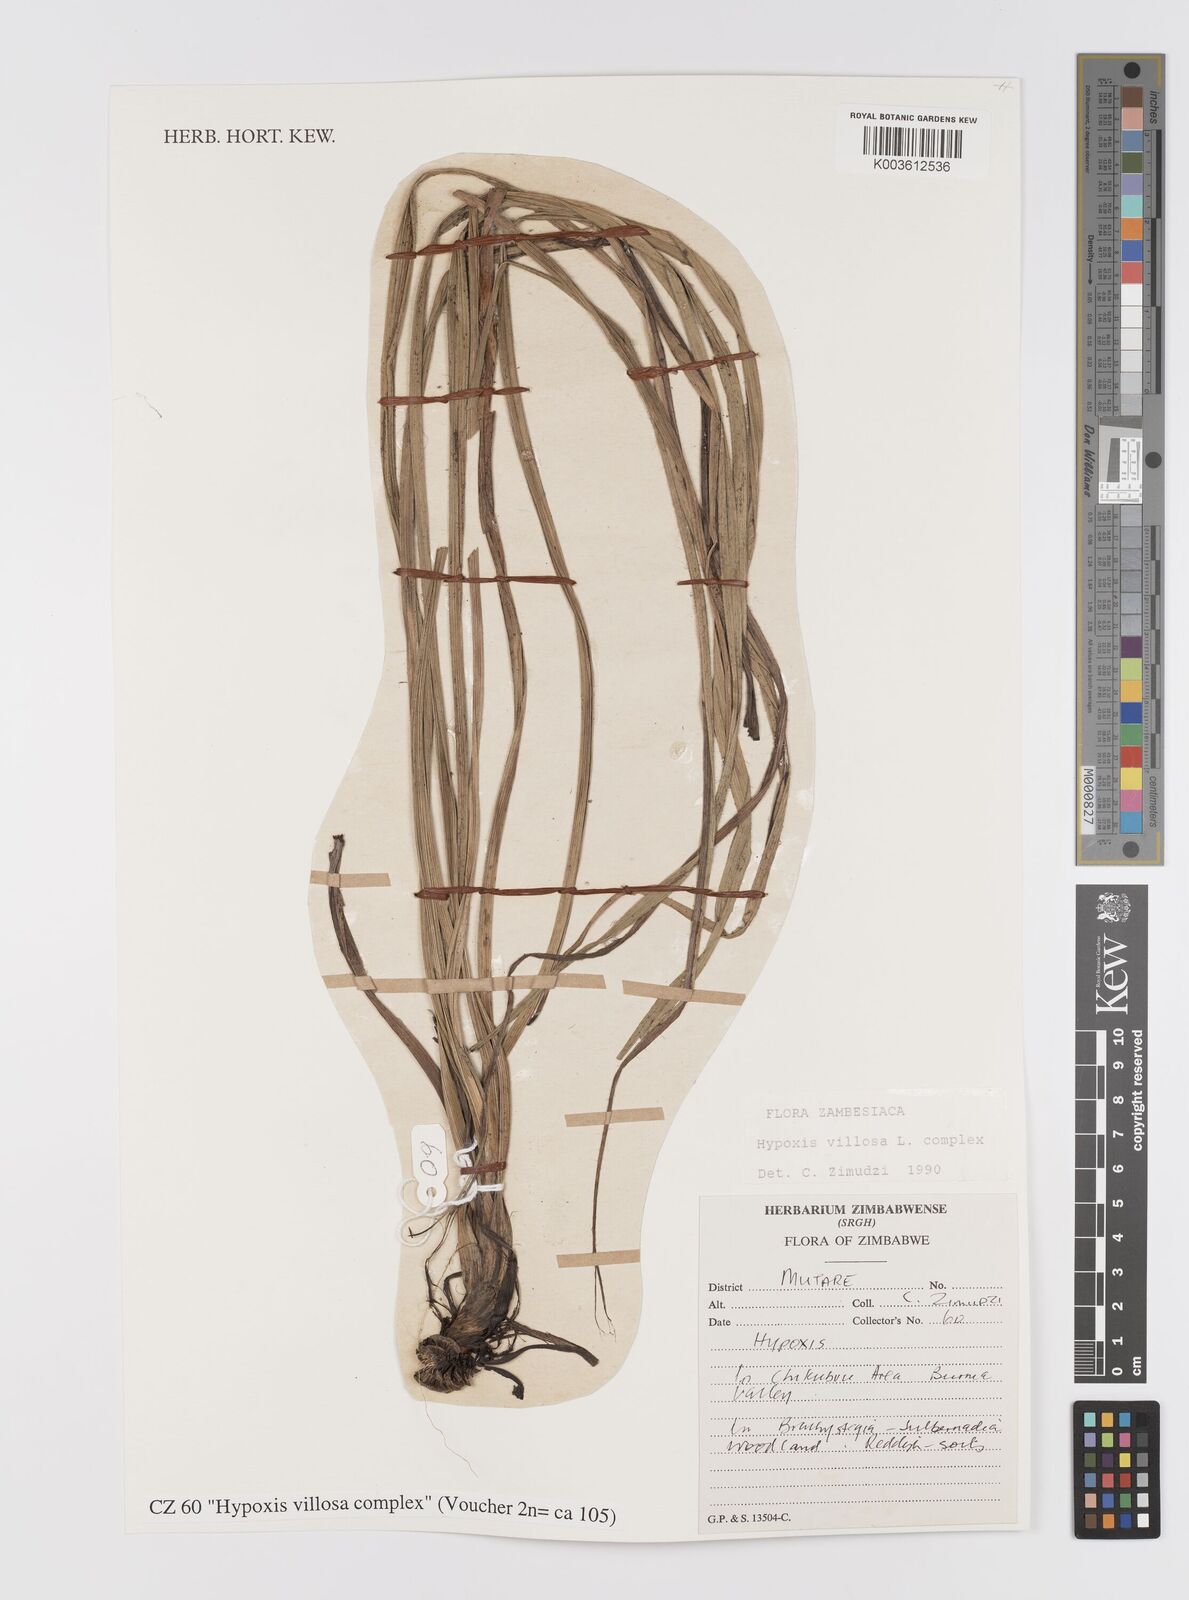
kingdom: Plantae
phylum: Tracheophyta
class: Liliopsida
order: Asparagales
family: Hypoxidaceae
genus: Hypoxis
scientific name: Hypoxis villosa
